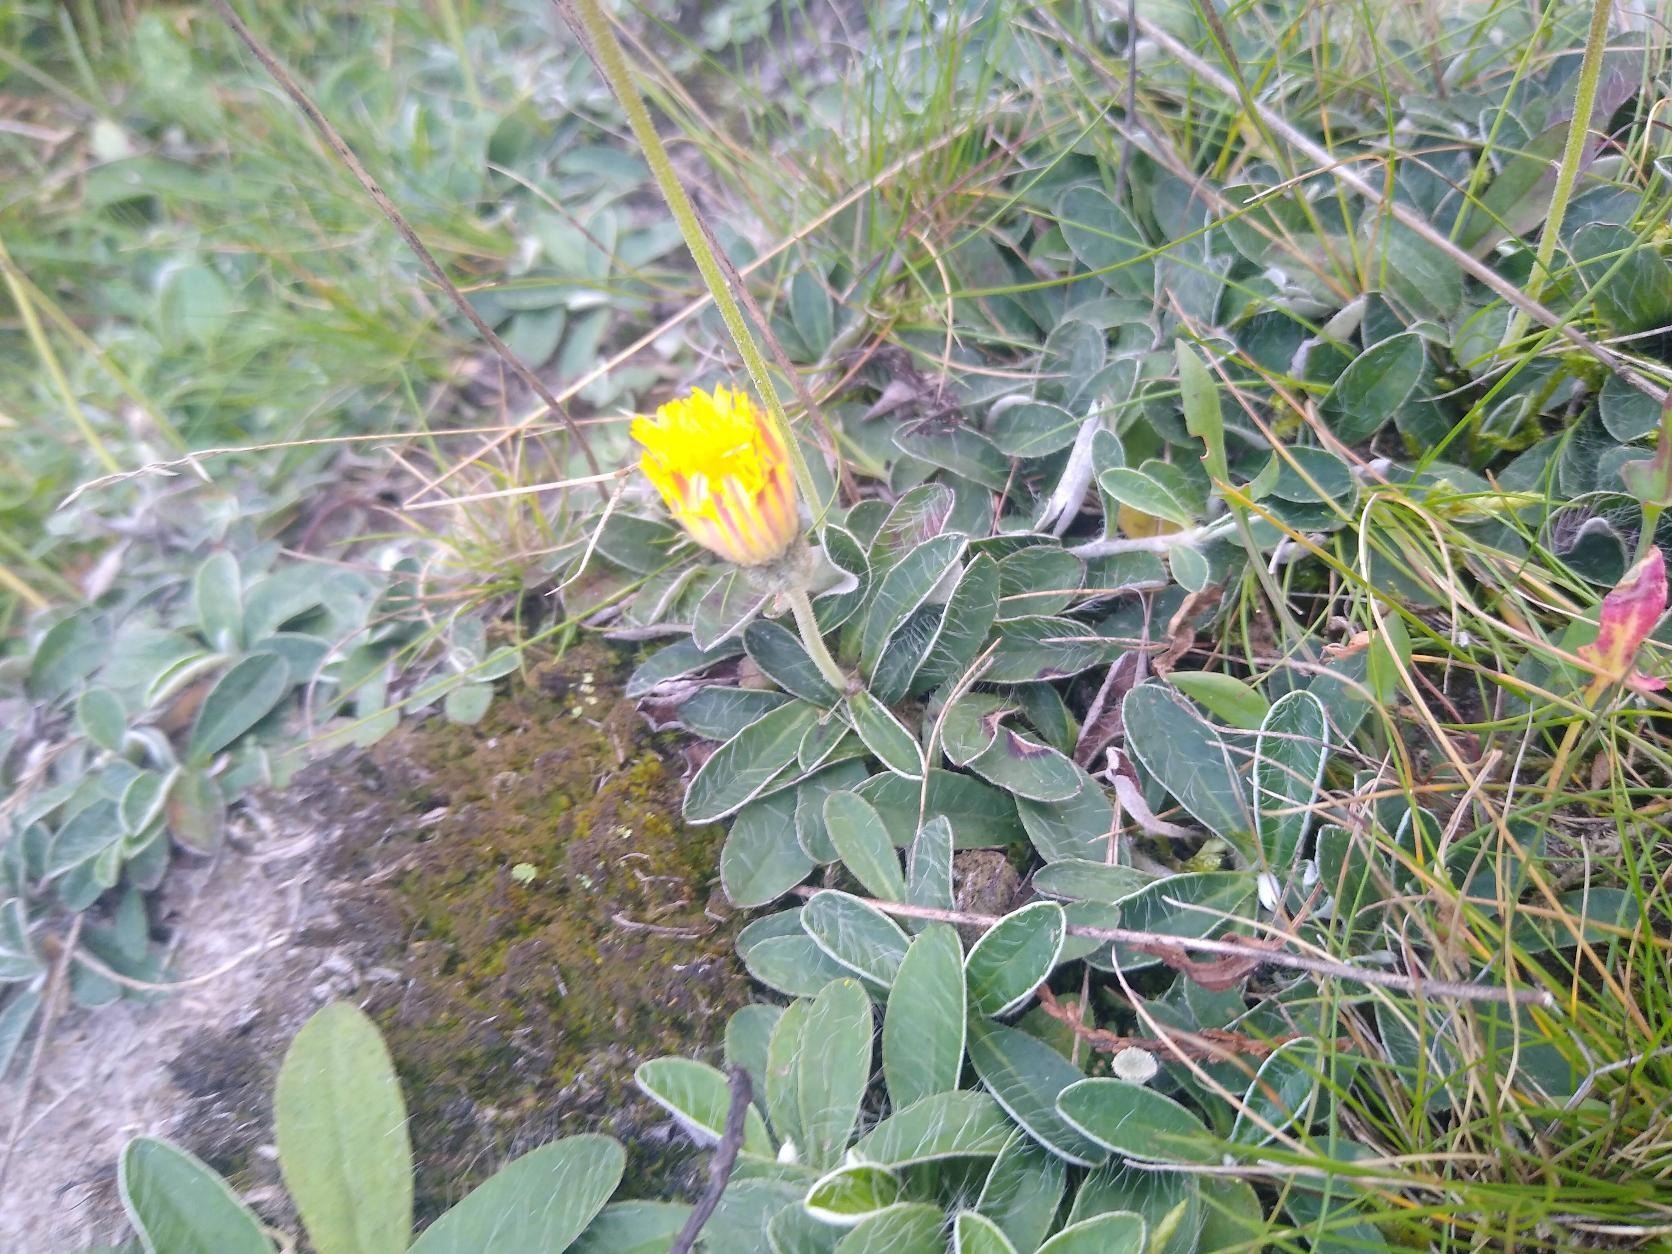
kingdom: Plantae
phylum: Tracheophyta
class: Magnoliopsida
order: Asterales
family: Asteraceae
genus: Pilosella
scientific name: Pilosella officinarum
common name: Håret høgeurt
